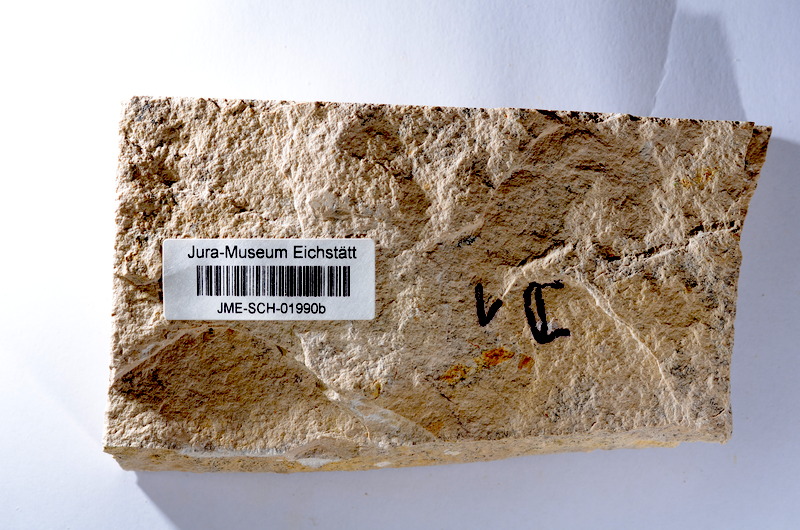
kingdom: Animalia
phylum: Chordata
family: Ascalaboidae
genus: Tharsis
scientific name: Tharsis dubius
